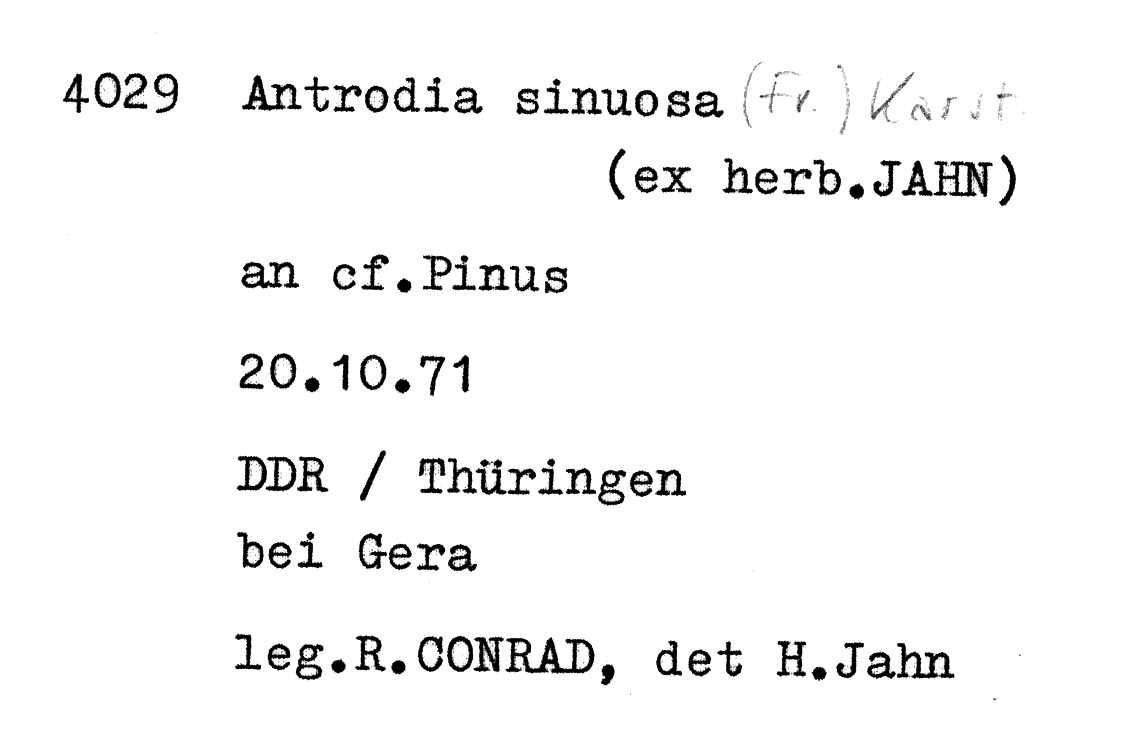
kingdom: Plantae
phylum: Tracheophyta
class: Pinopsida
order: Pinales
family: Pinaceae
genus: Pinus
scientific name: Pinus
